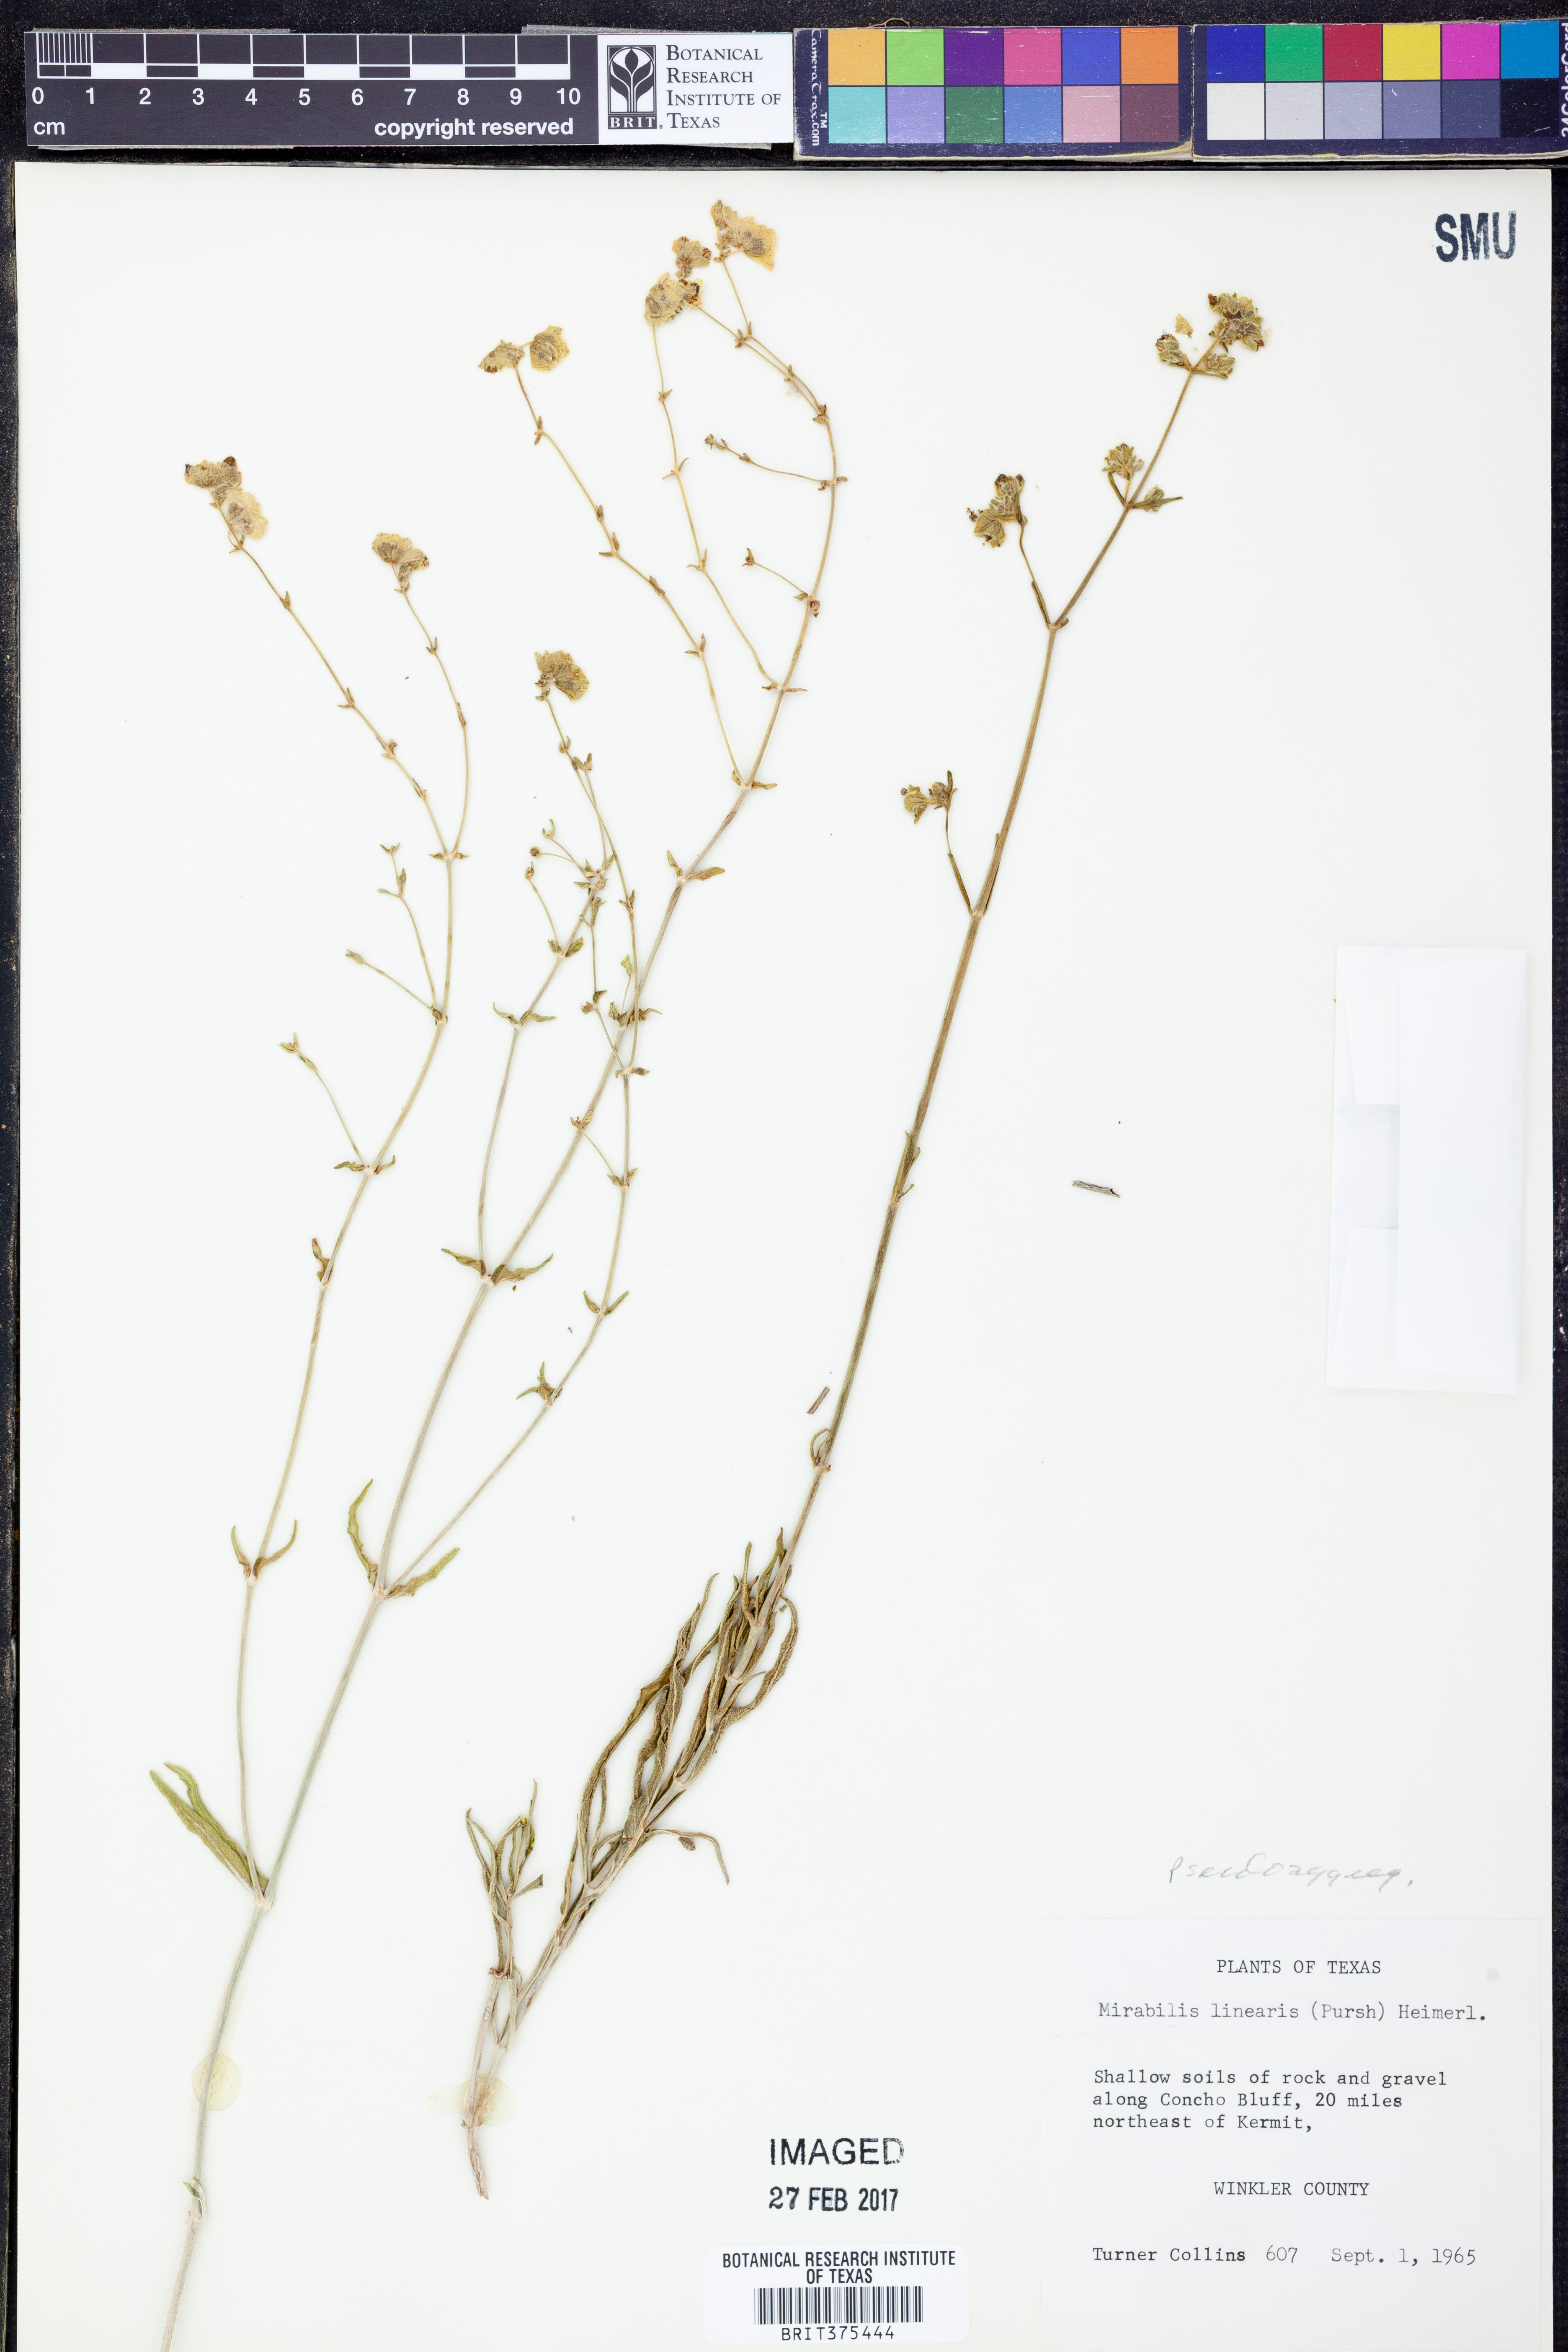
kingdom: Plantae
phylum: Tracheophyta
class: Magnoliopsida
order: Caryophyllales
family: Nyctaginaceae
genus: Mirabilis
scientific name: Mirabilis linearis
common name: Linear-leaved four-o'clock
